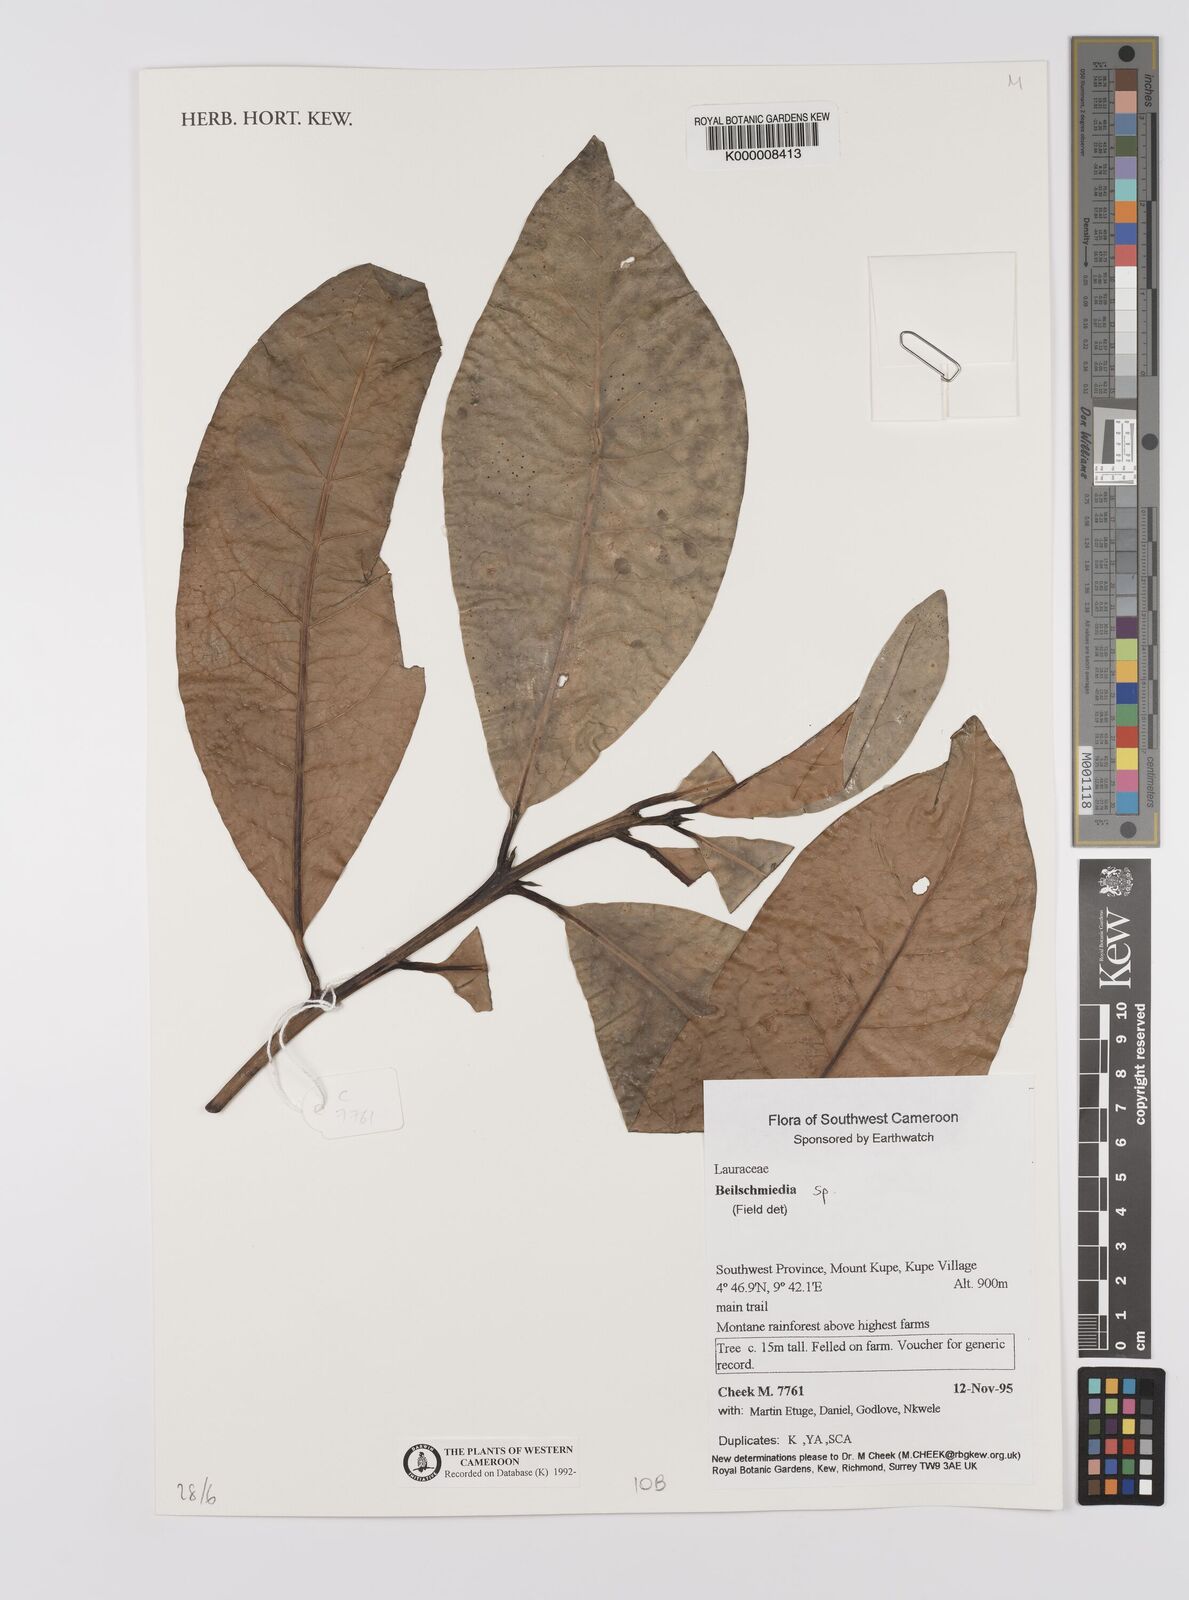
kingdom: Plantae
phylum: Tracheophyta
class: Magnoliopsida
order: Laurales
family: Lauraceae
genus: Beilschmiedia
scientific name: Beilschmiedia
